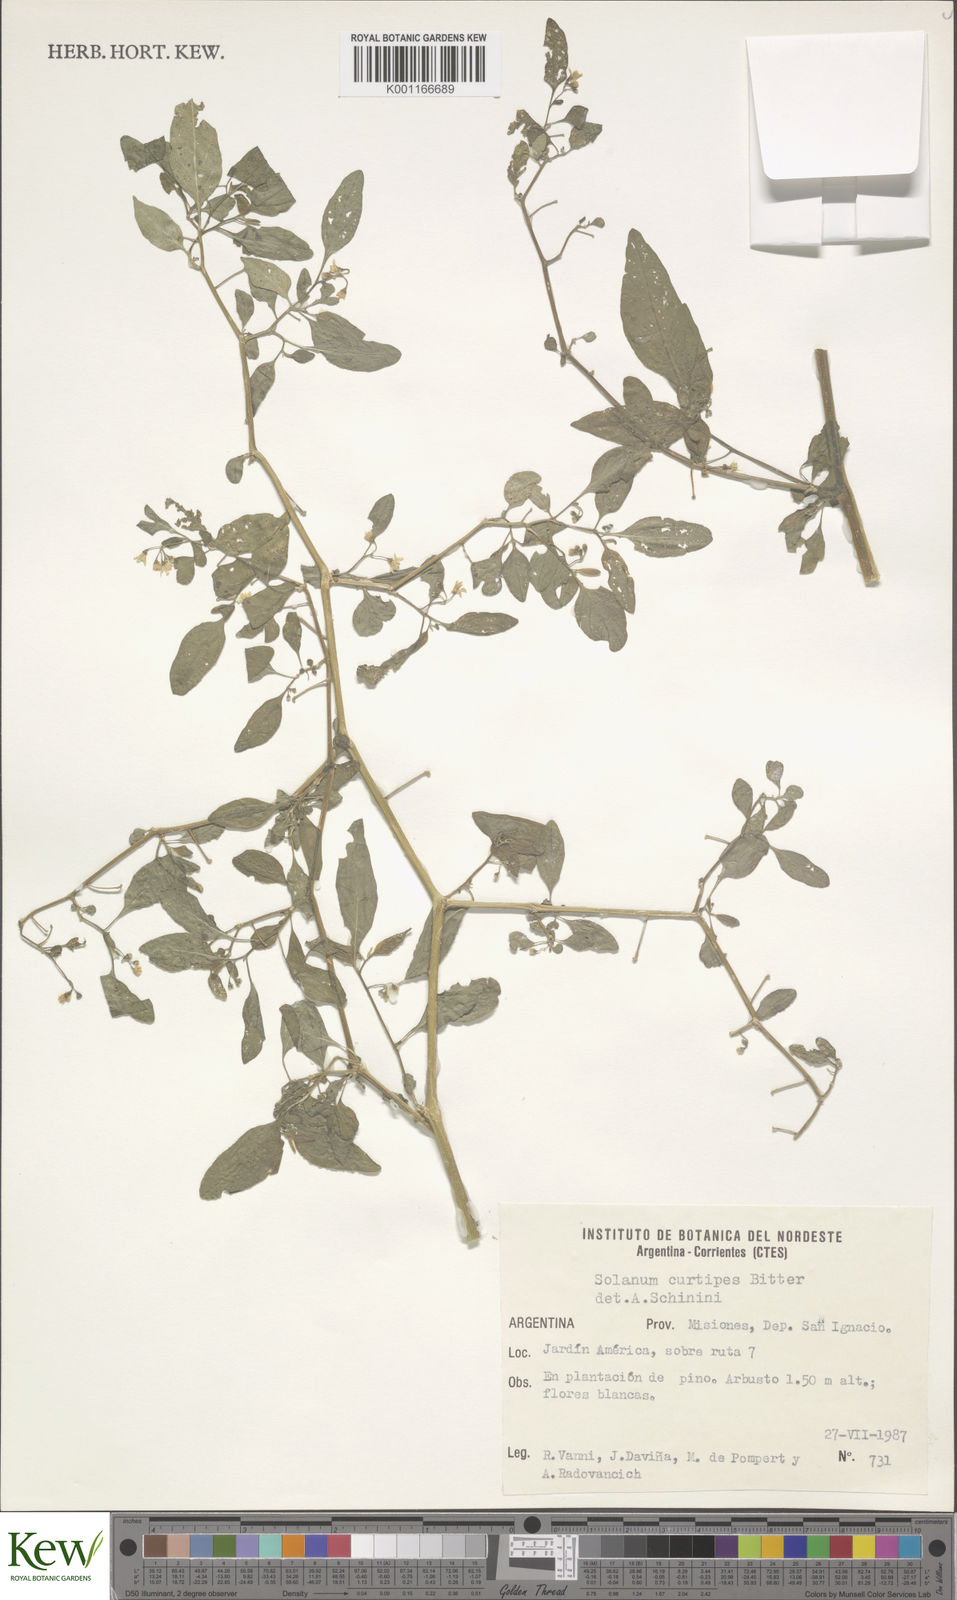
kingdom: Plantae
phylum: Tracheophyta
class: Magnoliopsida
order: Solanales
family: Solanaceae
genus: Solanum
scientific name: Solanum americanum
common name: American black nightshade
